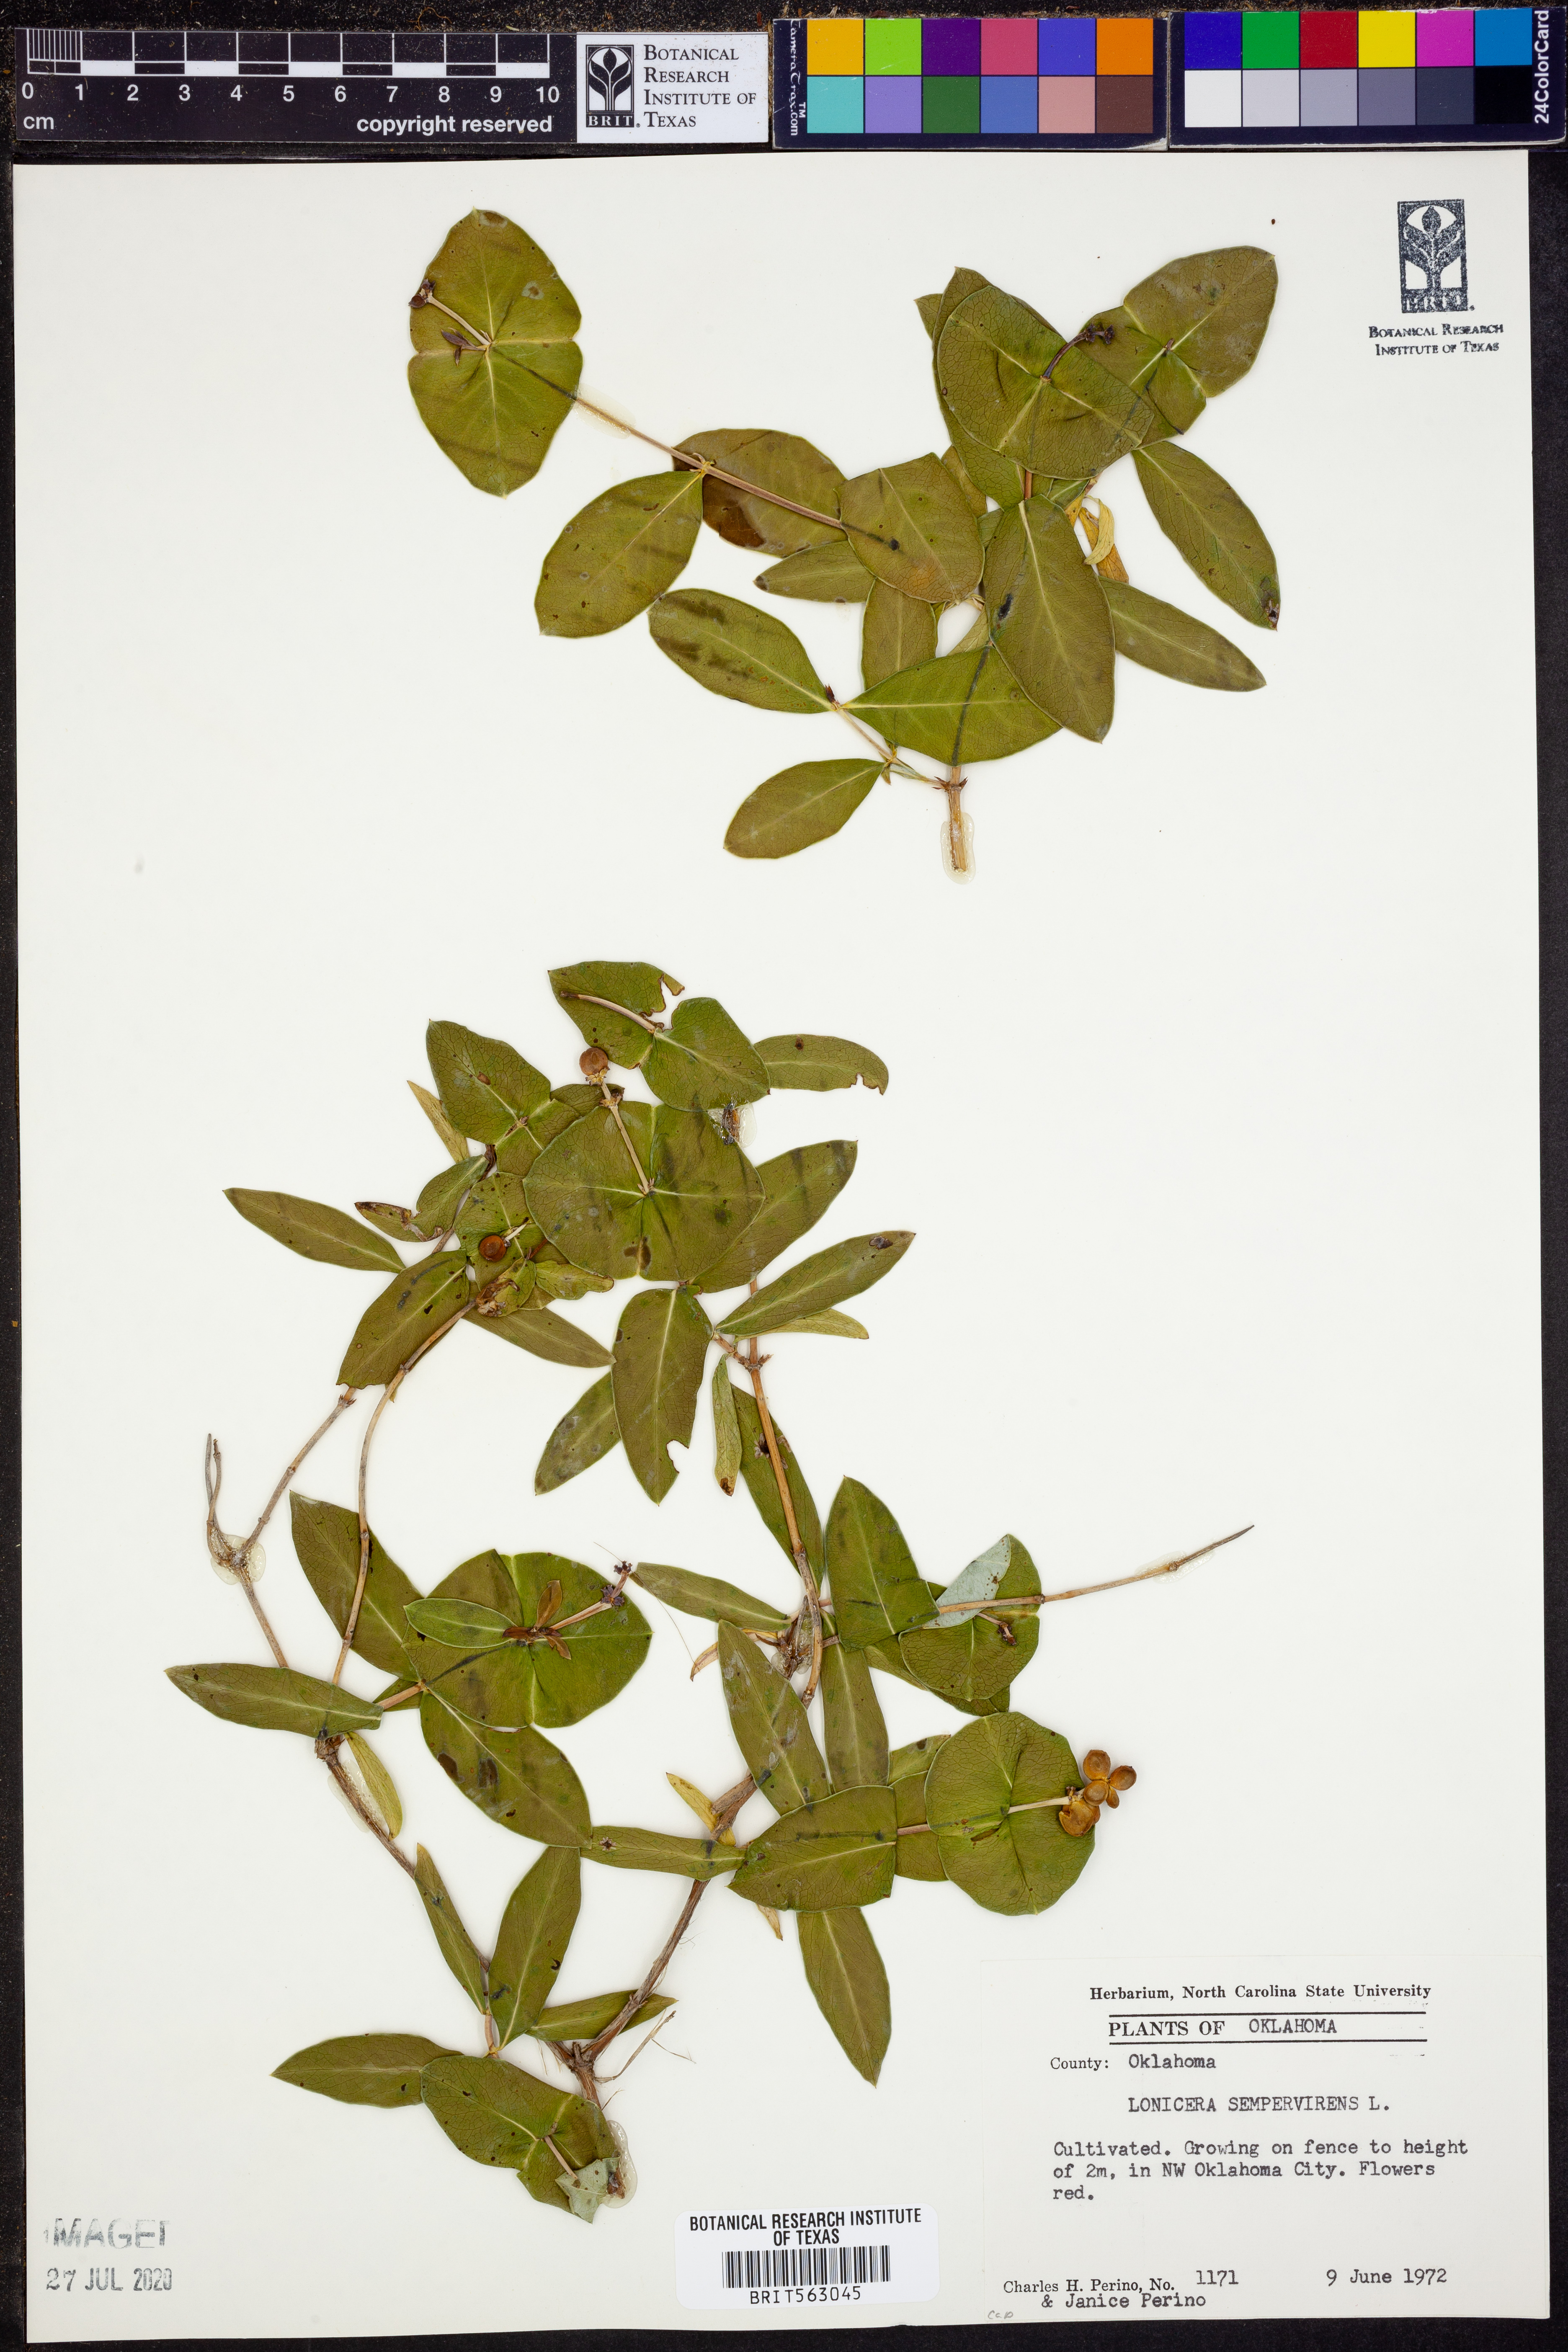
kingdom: Plantae
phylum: Tracheophyta
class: Magnoliopsida
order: Dipsacales
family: Caprifoliaceae
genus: Lonicera
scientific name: Lonicera sempervirens
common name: Coral honeysuckle
